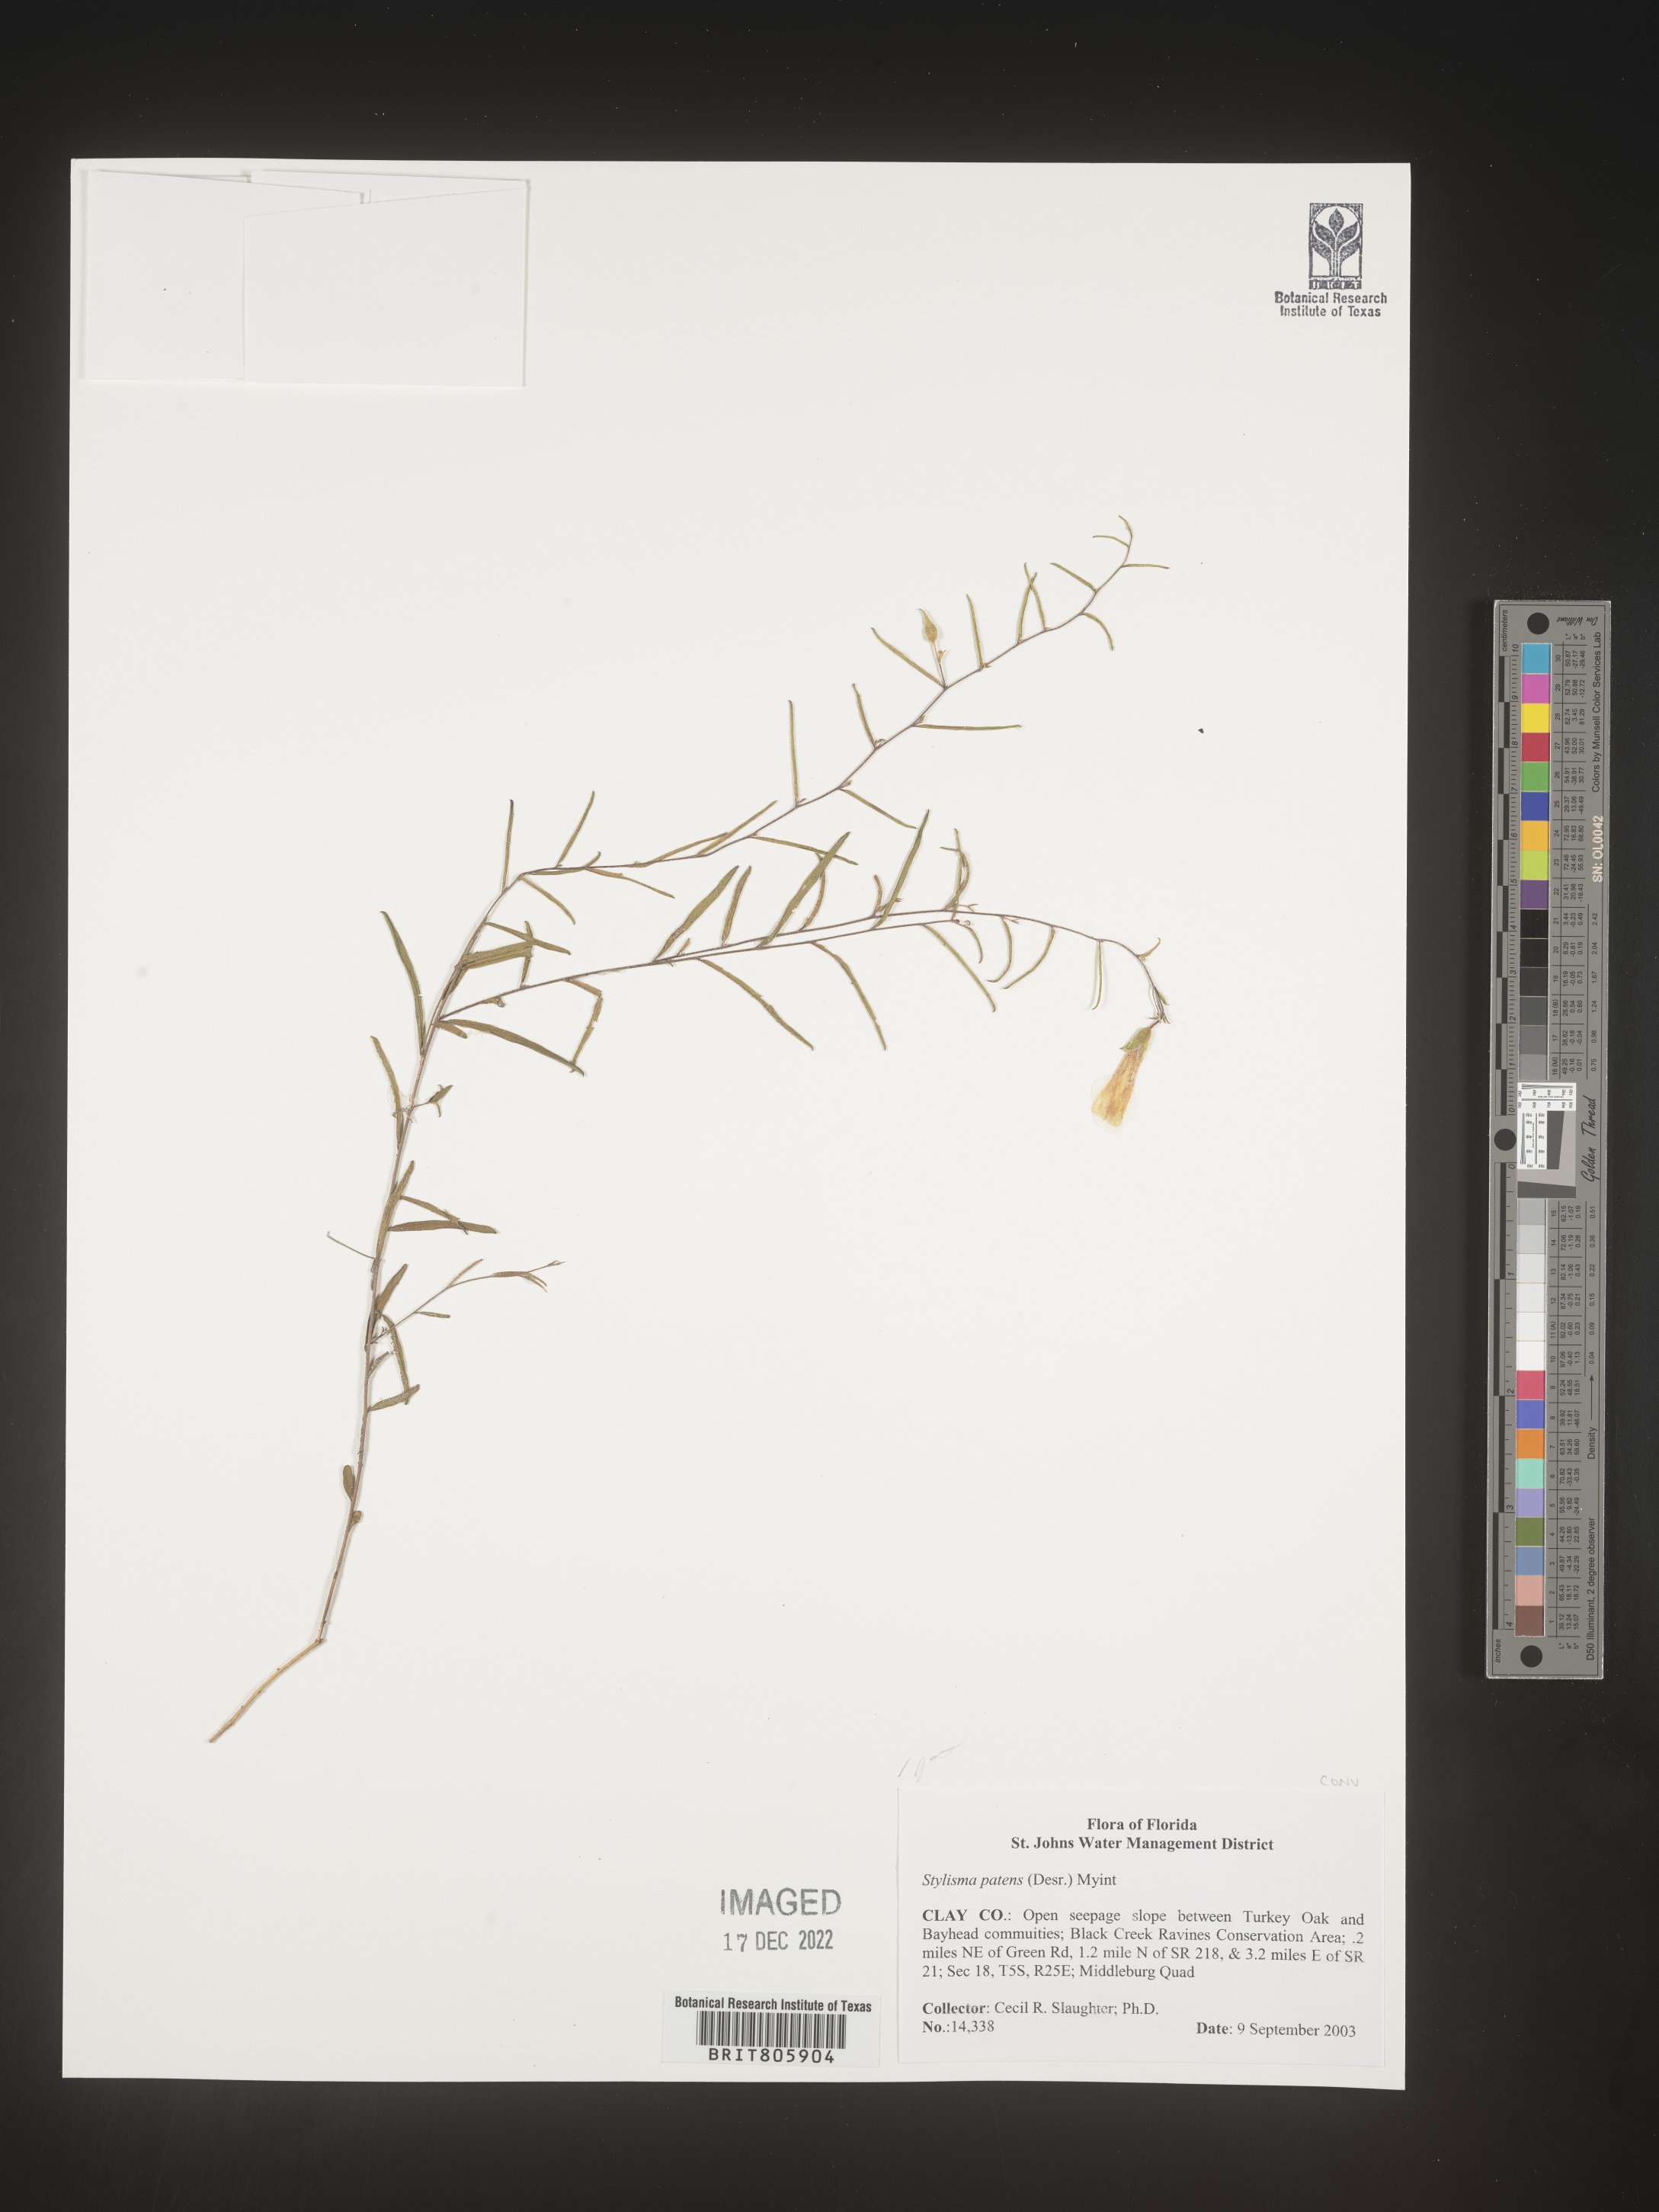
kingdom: Plantae
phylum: Tracheophyta
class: Magnoliopsida
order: Solanales
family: Convolvulaceae
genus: Stylisma
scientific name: Stylisma
